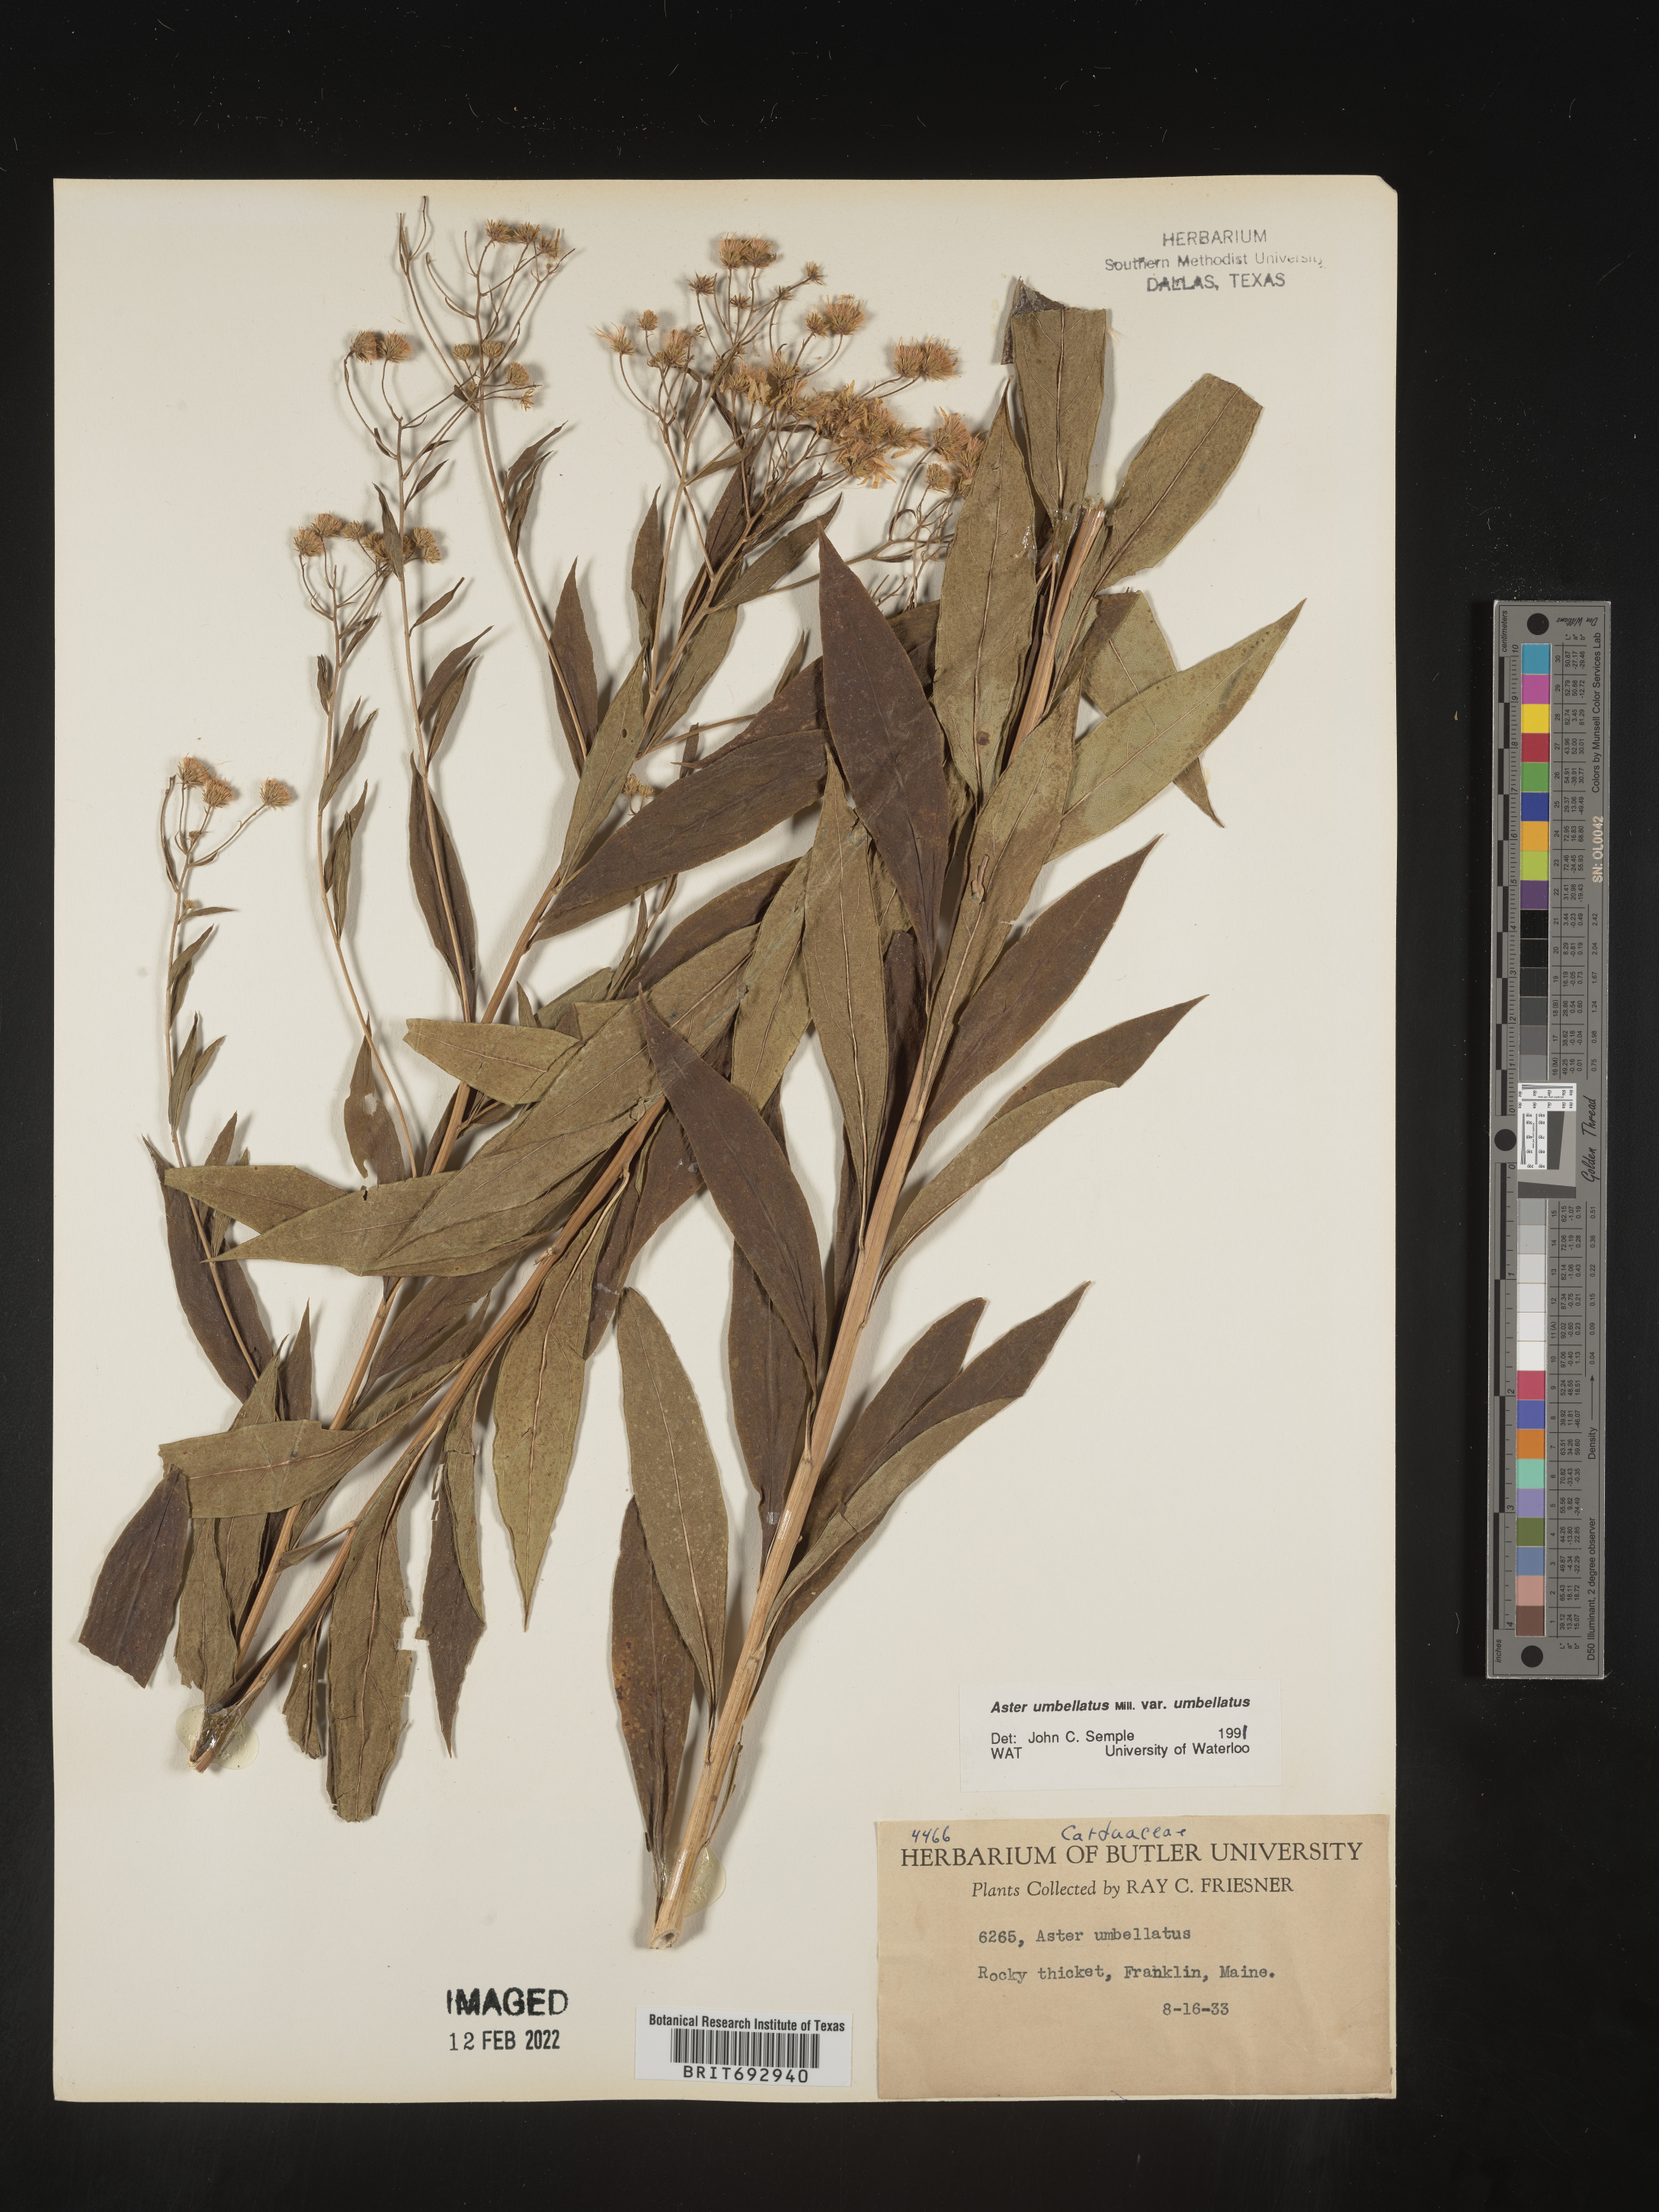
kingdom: Plantae
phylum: Tracheophyta
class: Magnoliopsida
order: Asterales
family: Asteraceae
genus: Doellingeria
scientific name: Doellingeria umbellata
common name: Flat-top white aster
